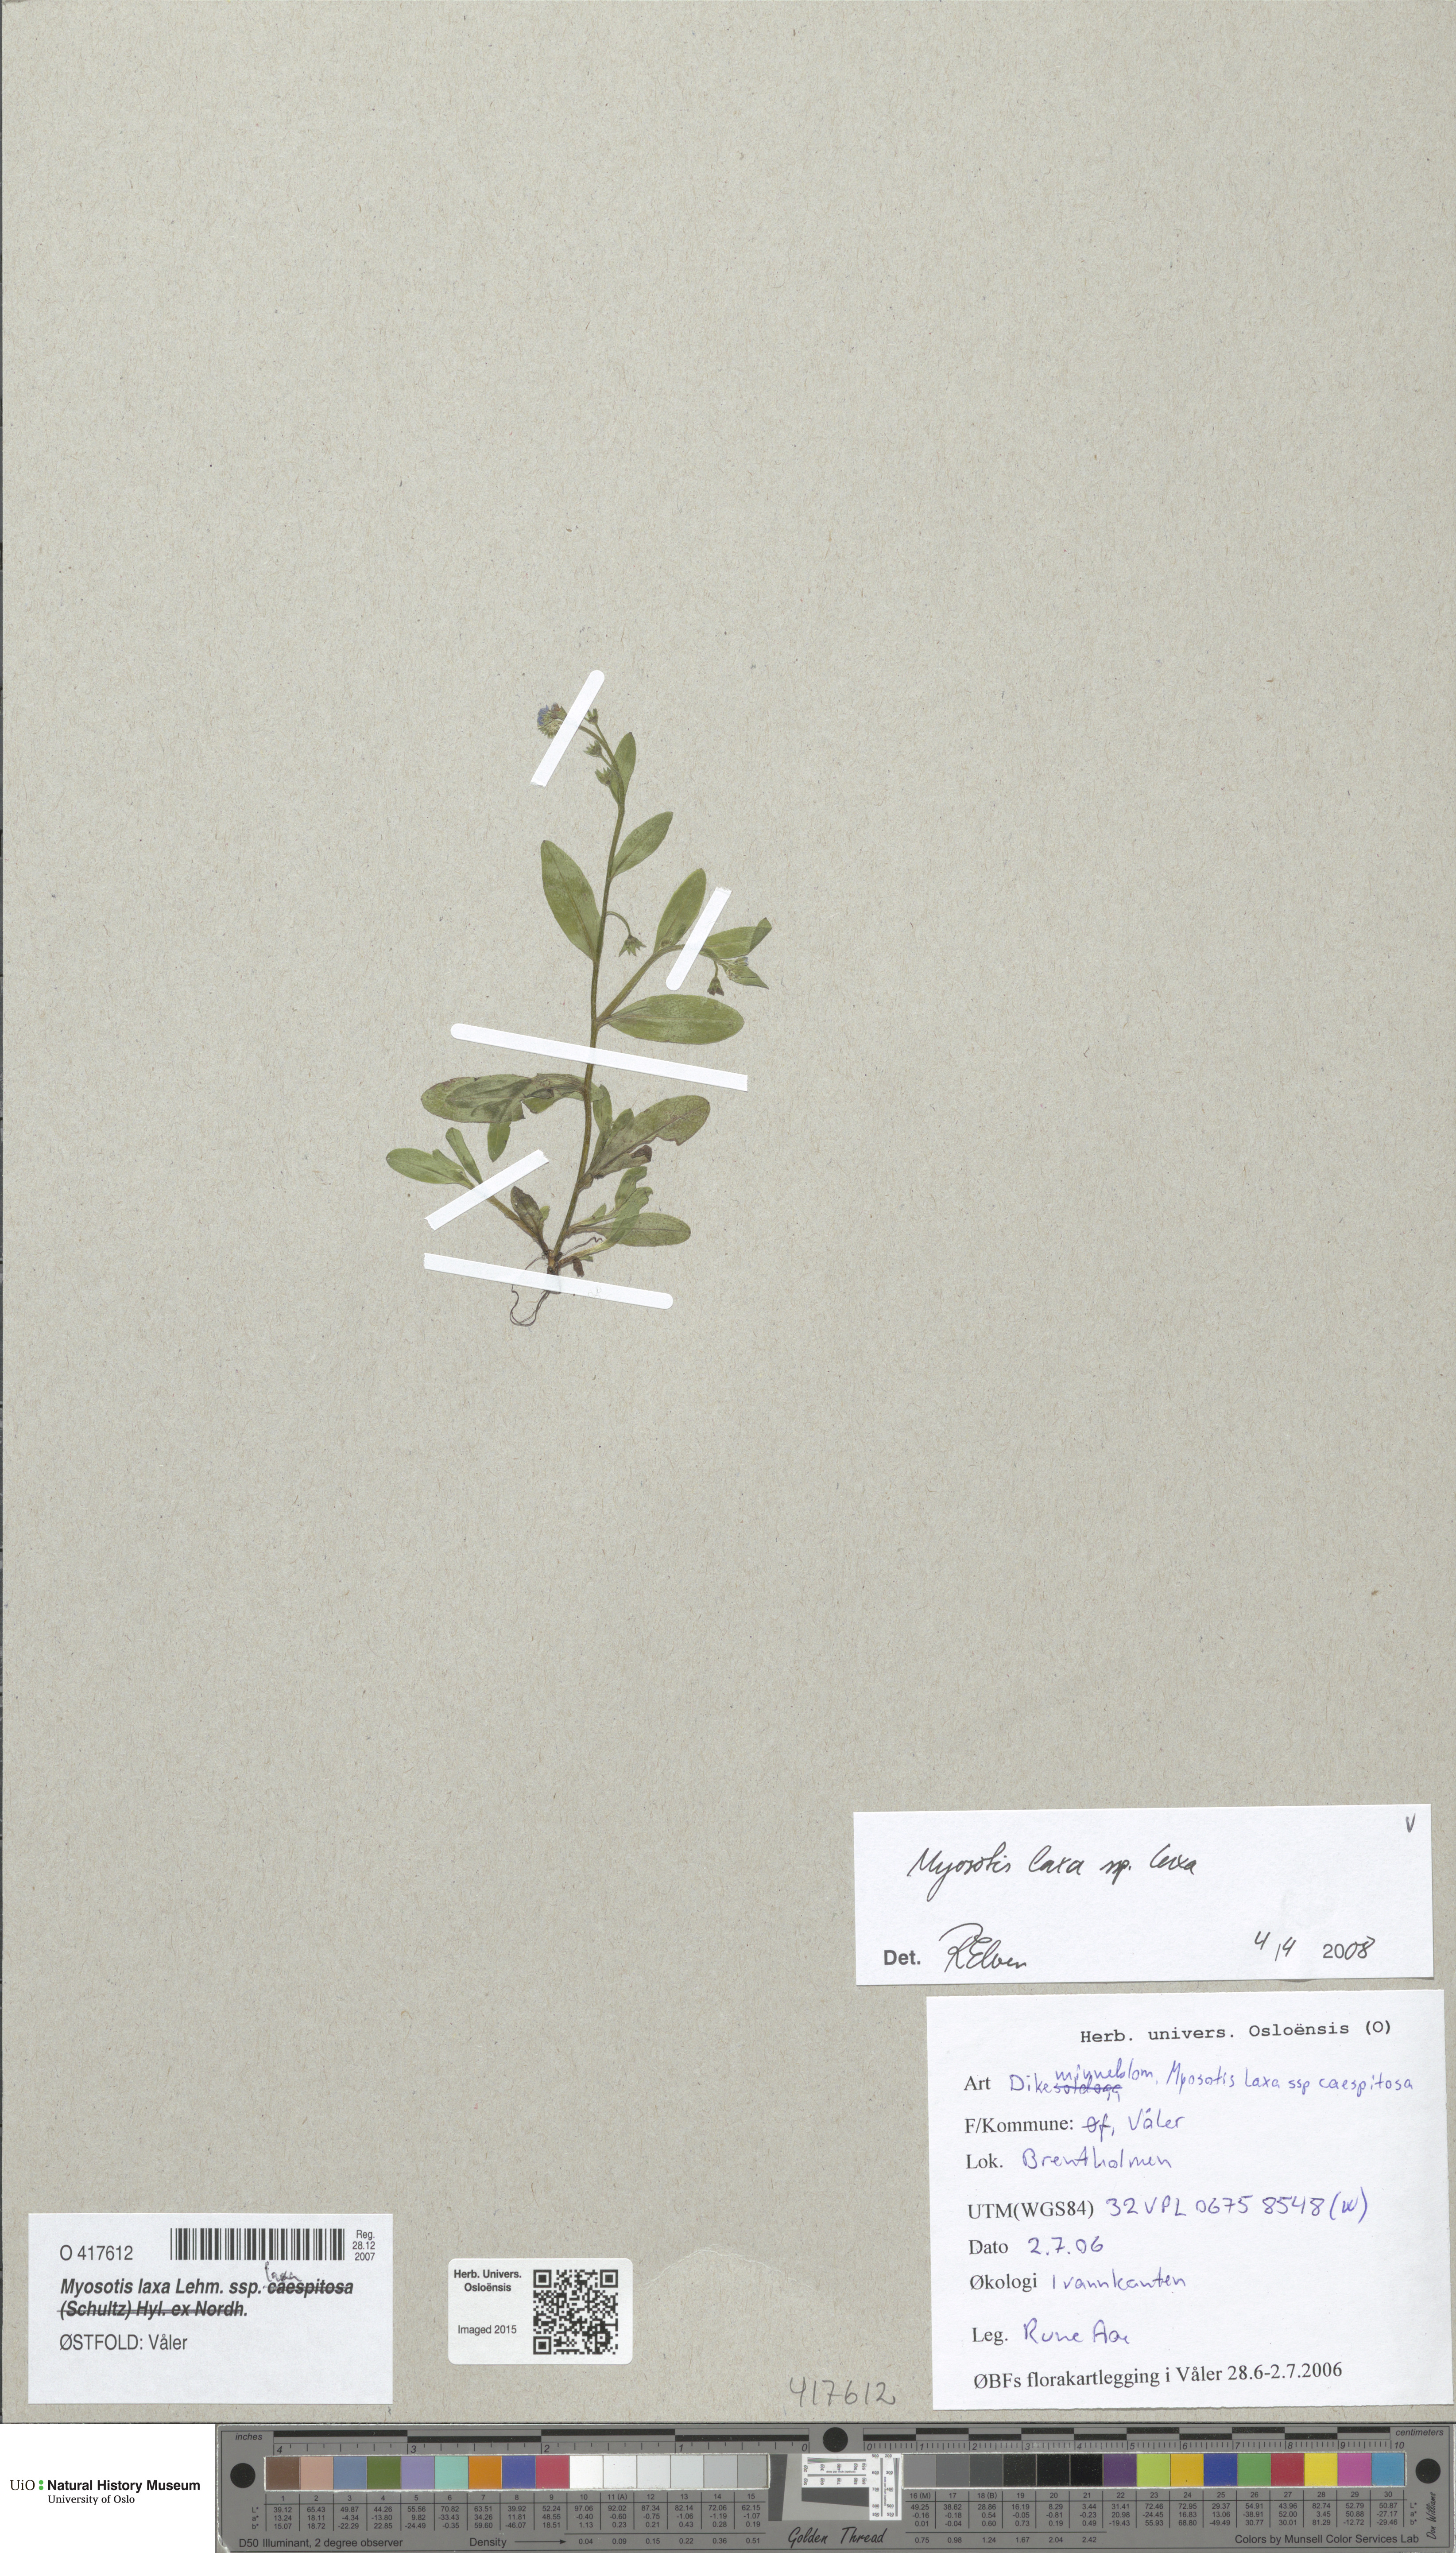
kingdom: Plantae
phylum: Tracheophyta
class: Magnoliopsida
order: Boraginales
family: Boraginaceae
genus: Myosotis
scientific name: Myosotis laxa
